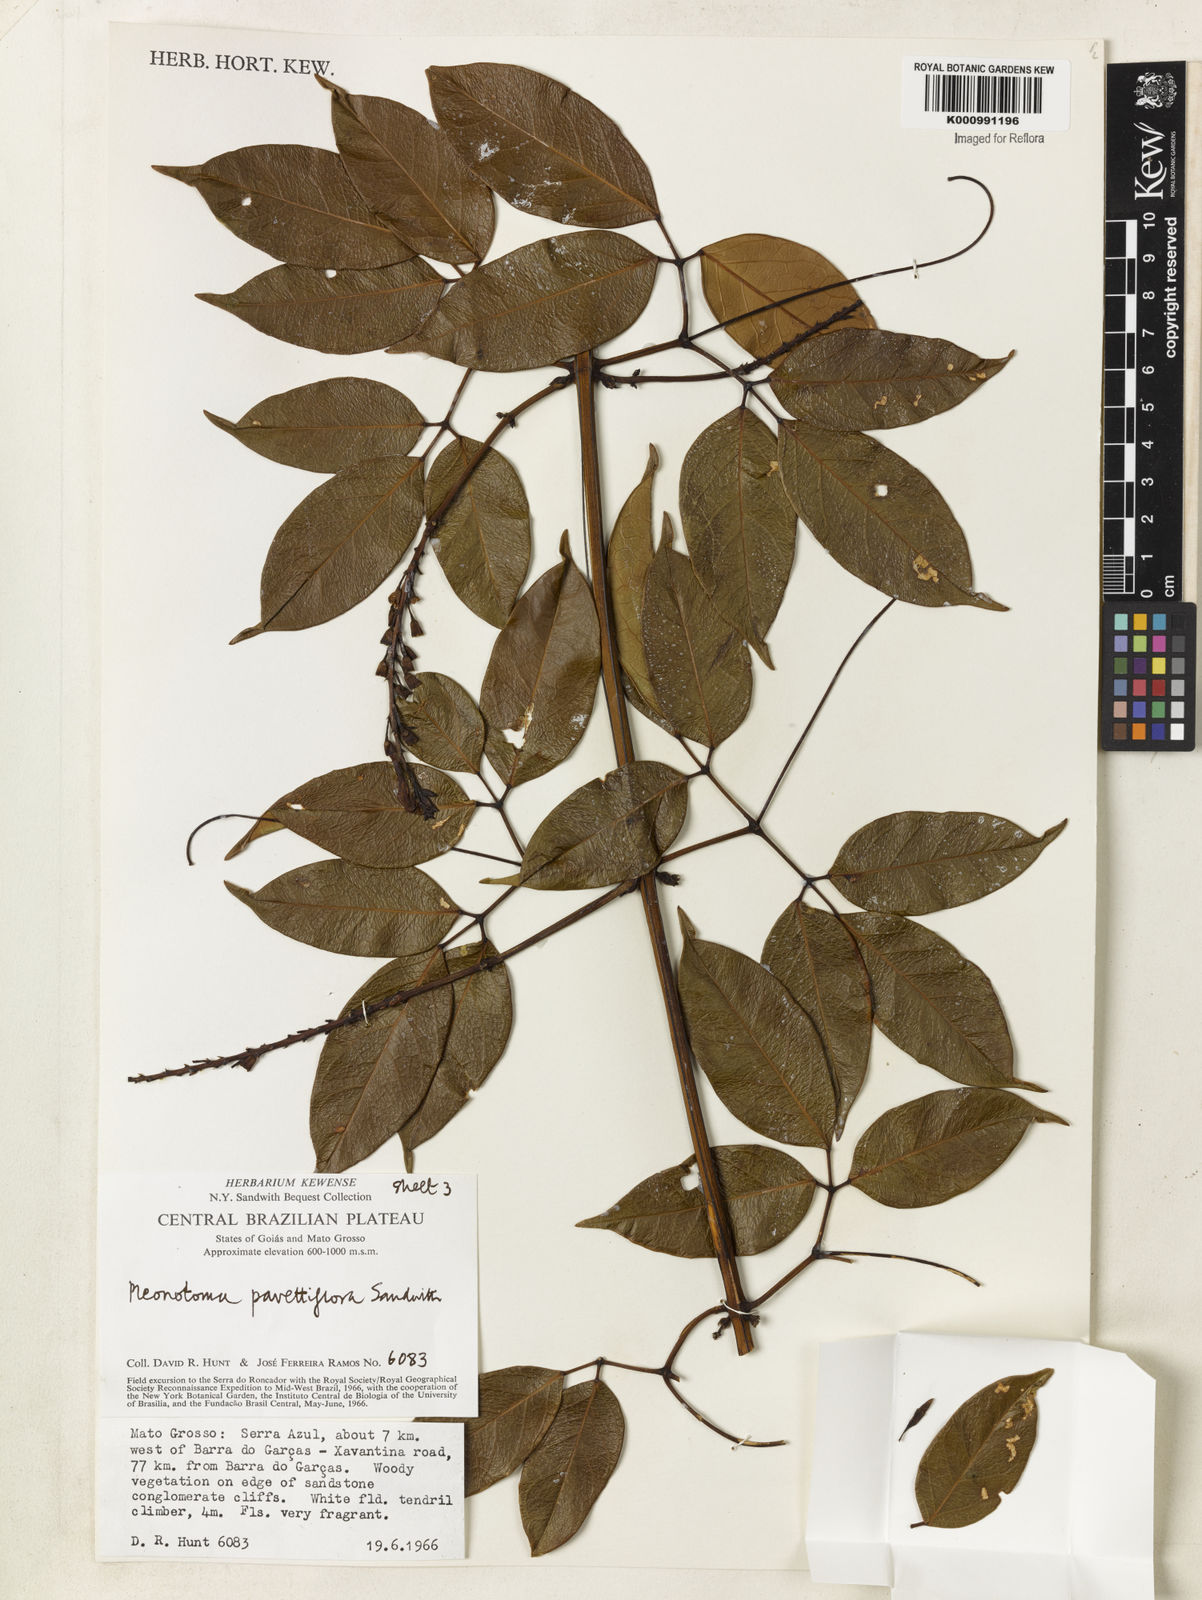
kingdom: Plantae
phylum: Tracheophyta
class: Magnoliopsida
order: Lamiales
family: Bignoniaceae
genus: Pleonotoma
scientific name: Pleonotoma pavettiflora
